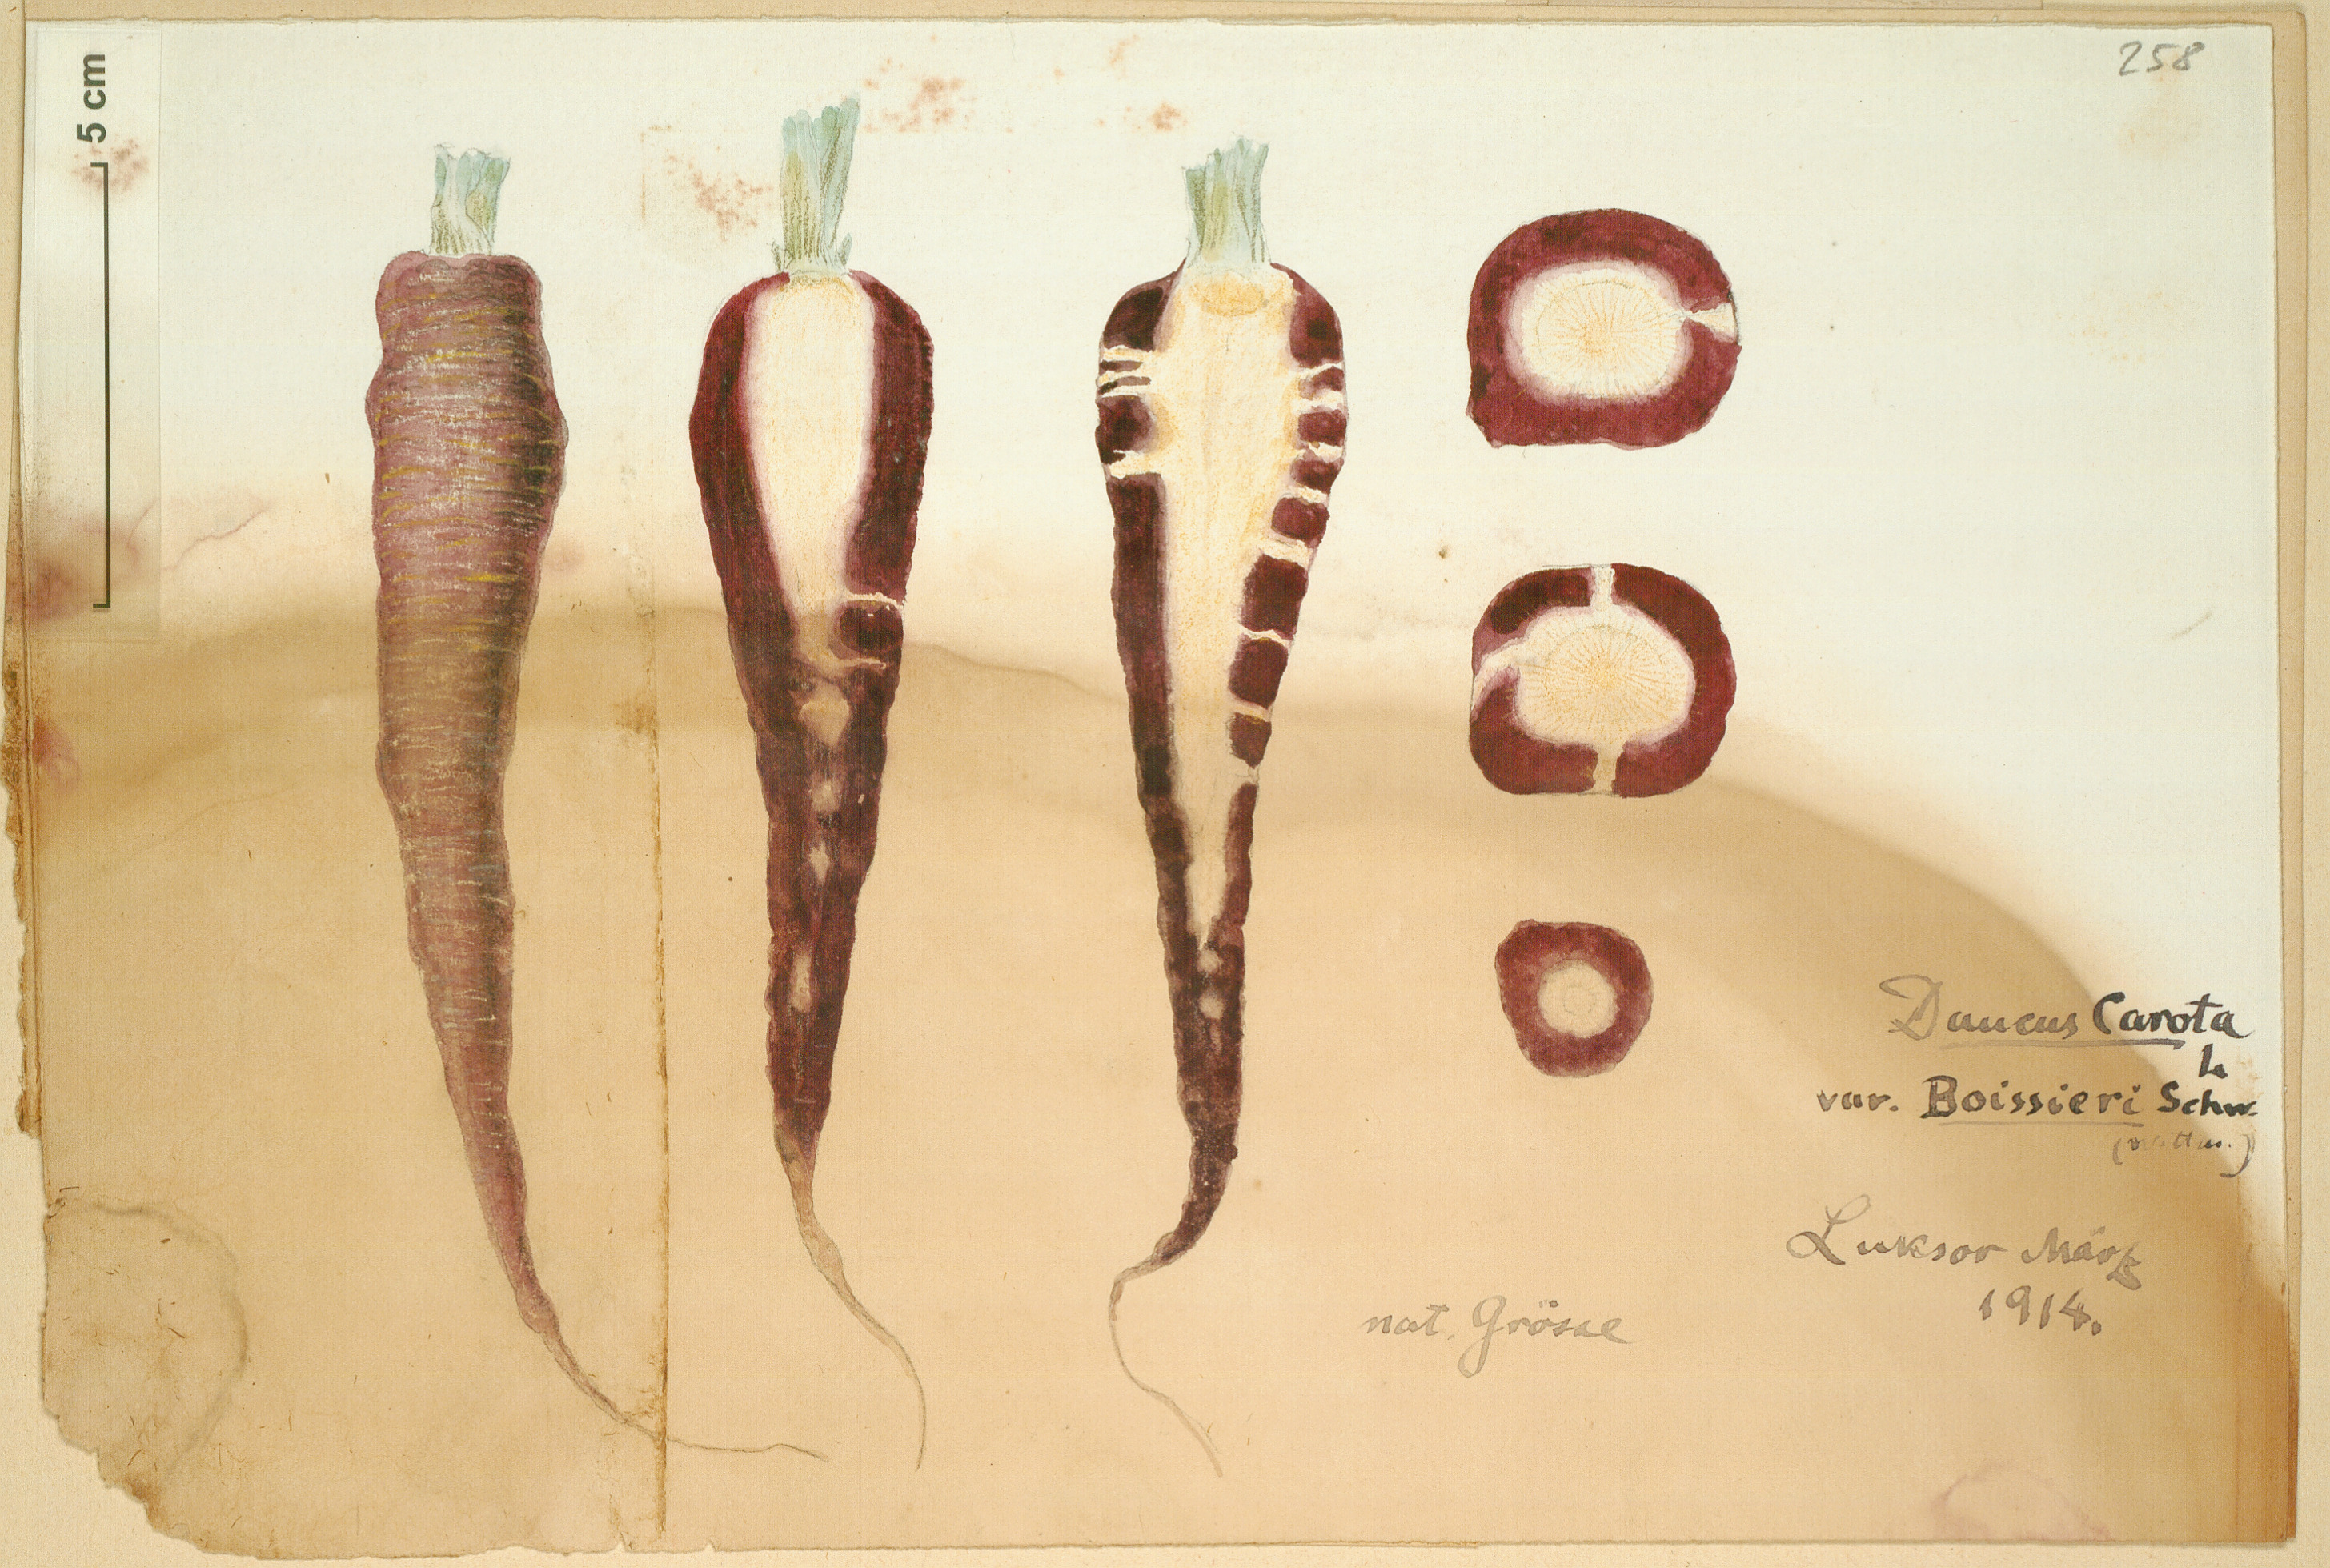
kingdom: Plantae
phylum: Tracheophyta
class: Magnoliopsida
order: Apiales
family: Apiaceae
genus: Daucus
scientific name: Daucus carota
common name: Wild carrot
